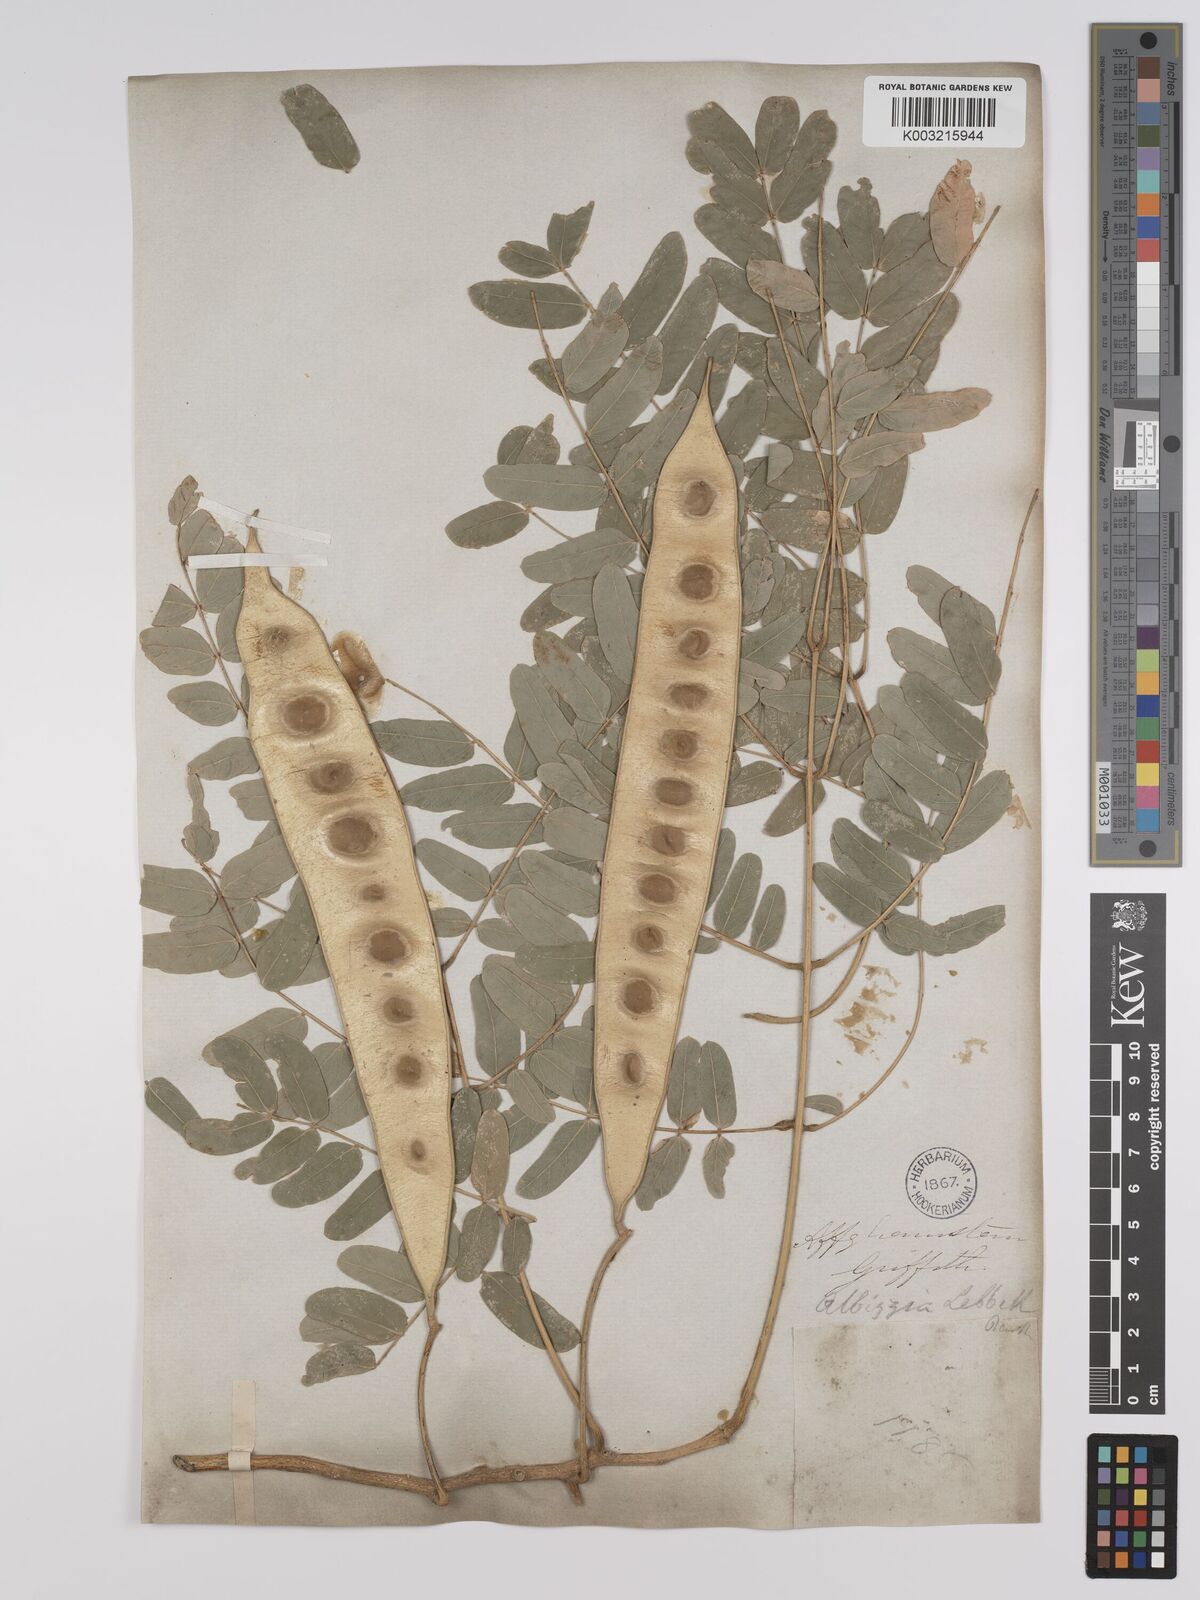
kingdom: Plantae
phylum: Tracheophyta
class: Magnoliopsida
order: Fabales
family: Fabaceae
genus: Albizia
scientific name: Albizia lebbeck
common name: Woman's tongue
